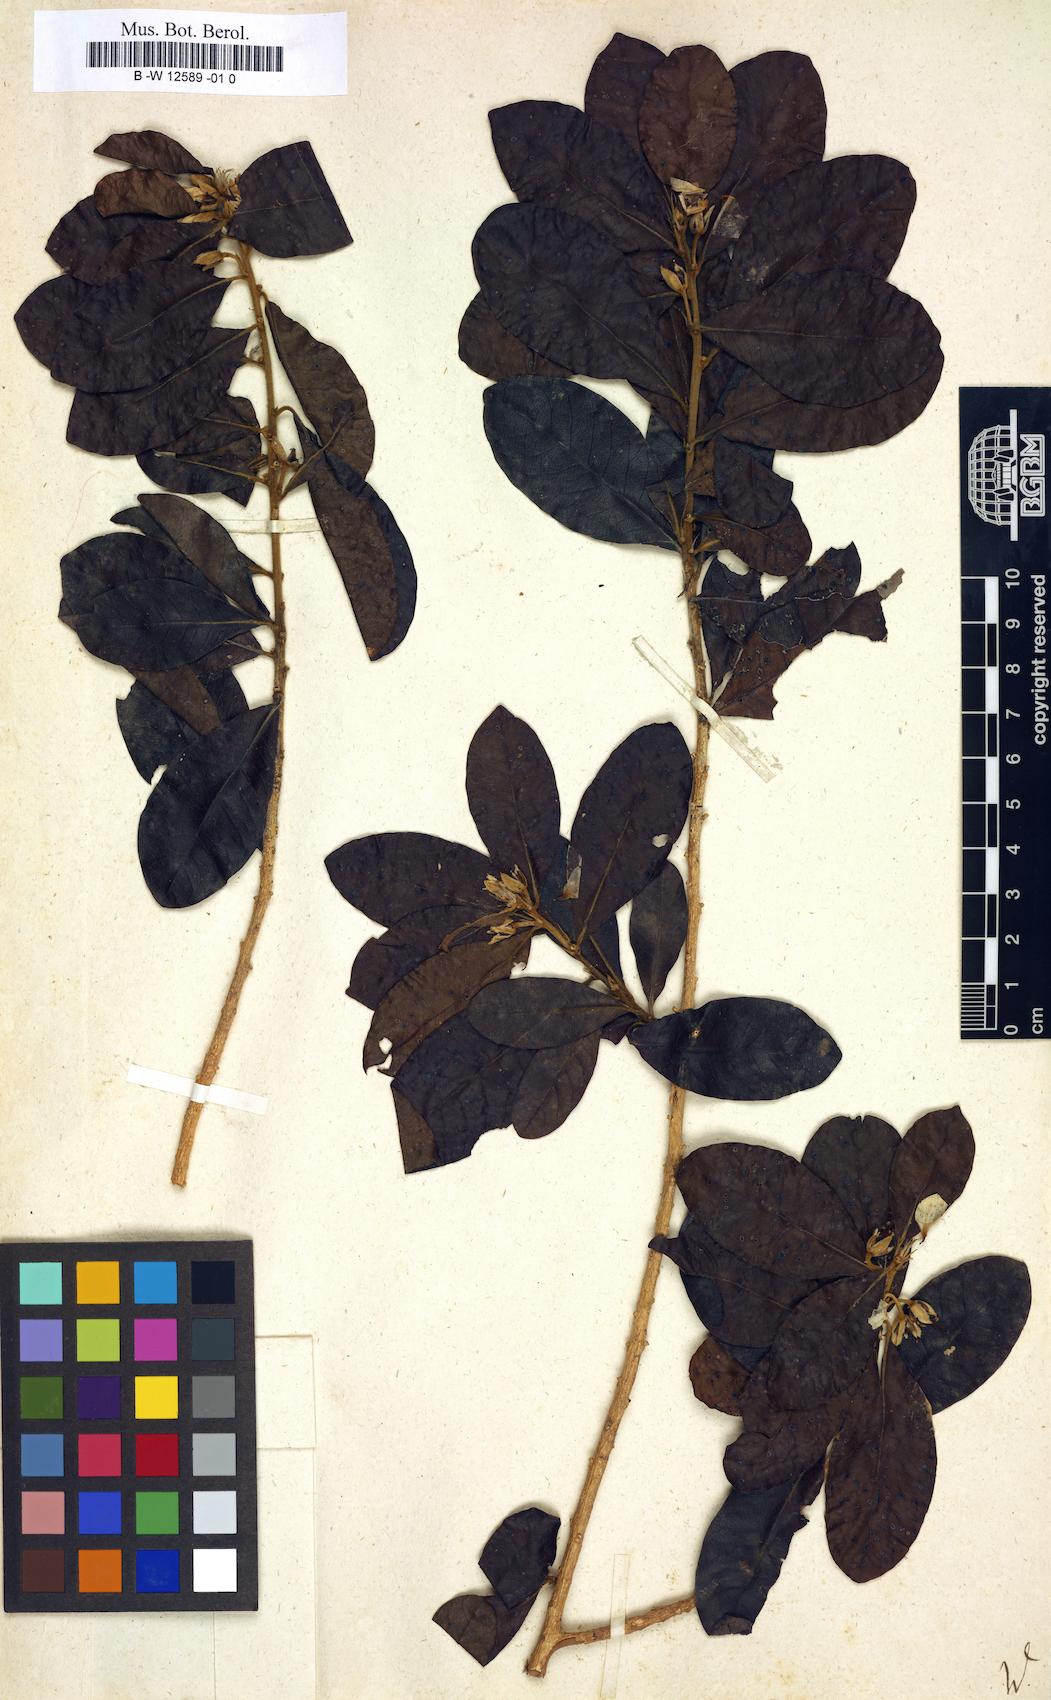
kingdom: Plantae
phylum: Tracheophyta
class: Magnoliopsida
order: Malpighiales
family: Linaceae
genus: Hugonia
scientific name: Hugonia
